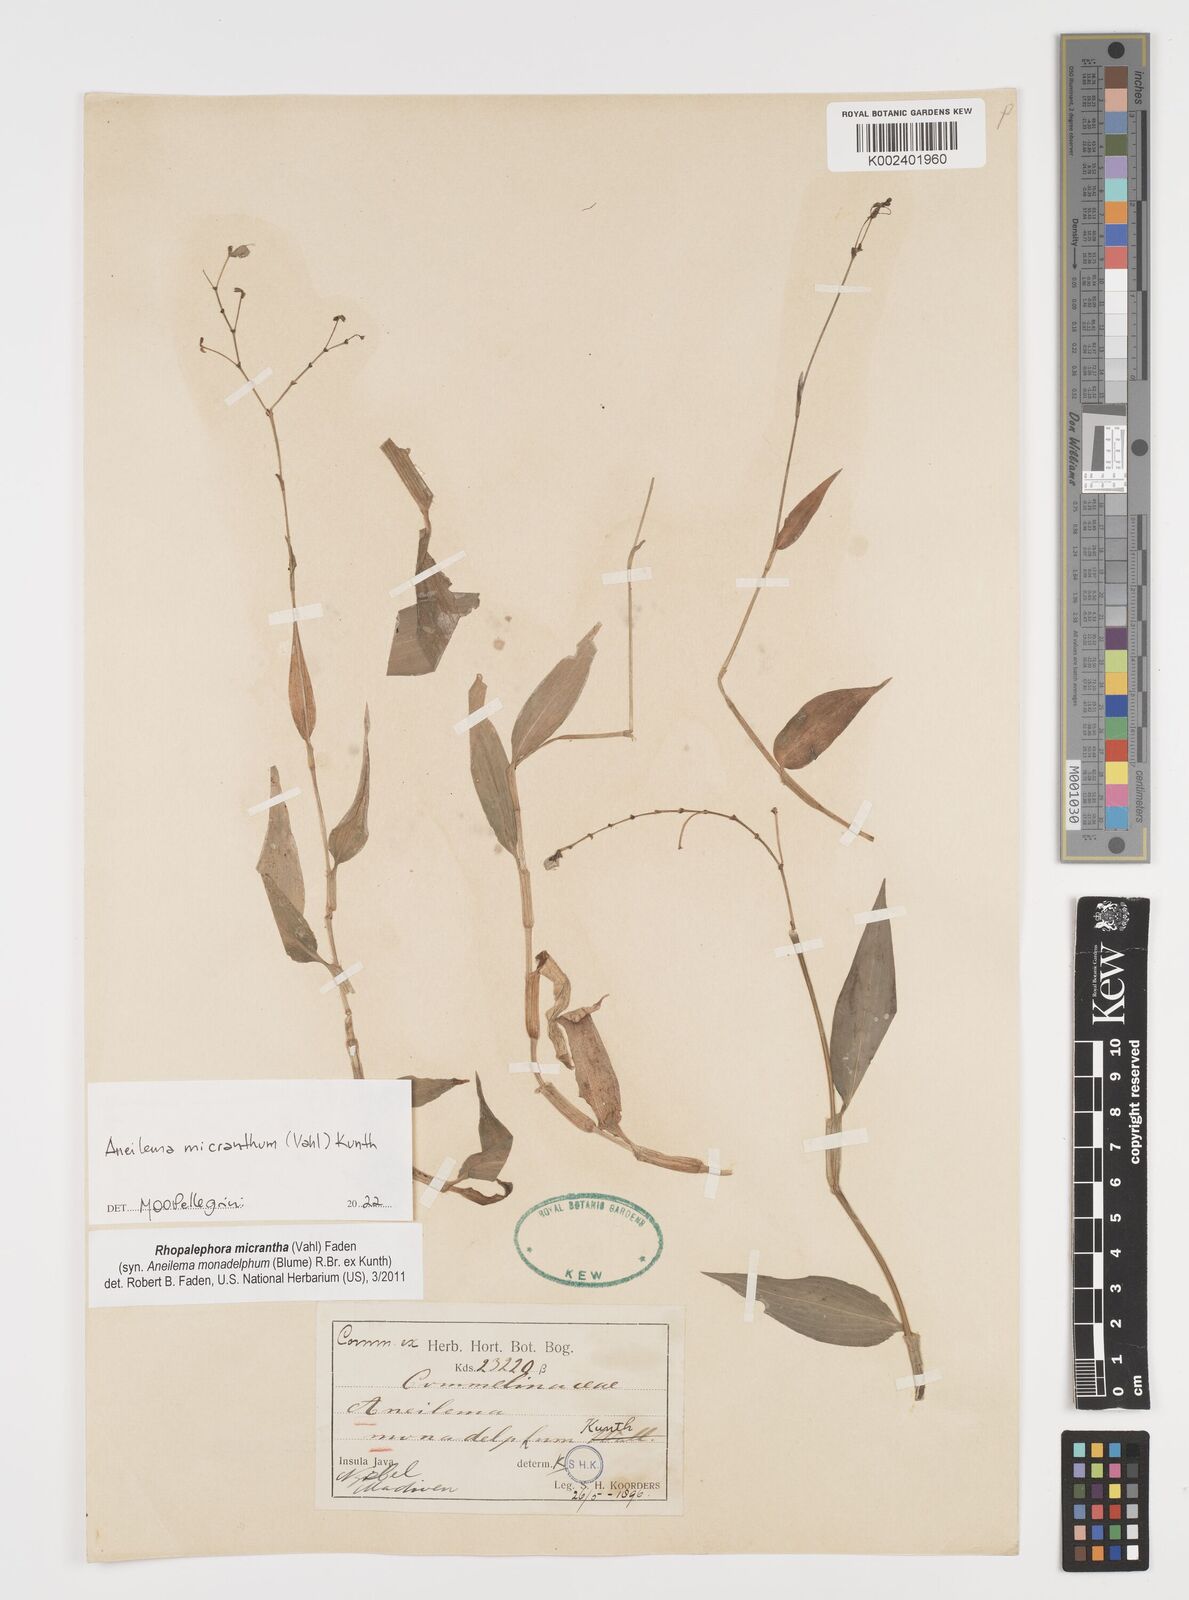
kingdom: Plantae
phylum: Tracheophyta
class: Liliopsida
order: Commelinales
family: Commelinaceae
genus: Rhopalephora
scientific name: Rhopalephora micrantha
